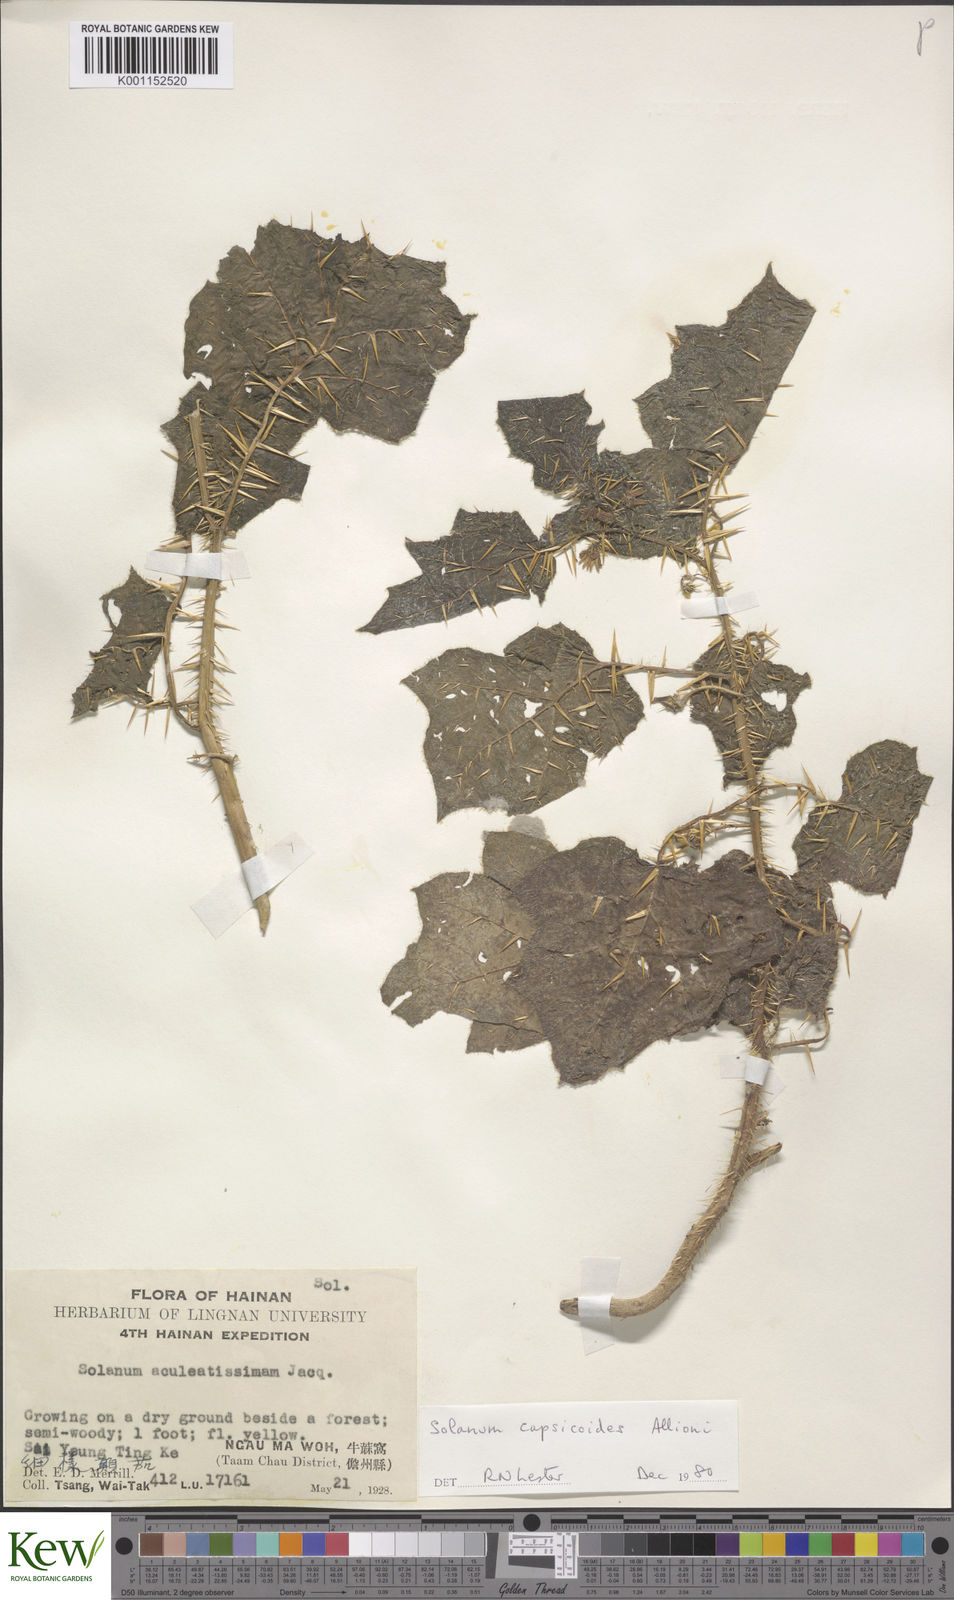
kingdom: Plantae
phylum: Tracheophyta
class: Magnoliopsida
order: Solanales
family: Solanaceae
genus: Solanum
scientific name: Solanum capsicoides
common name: Cockroach berry
